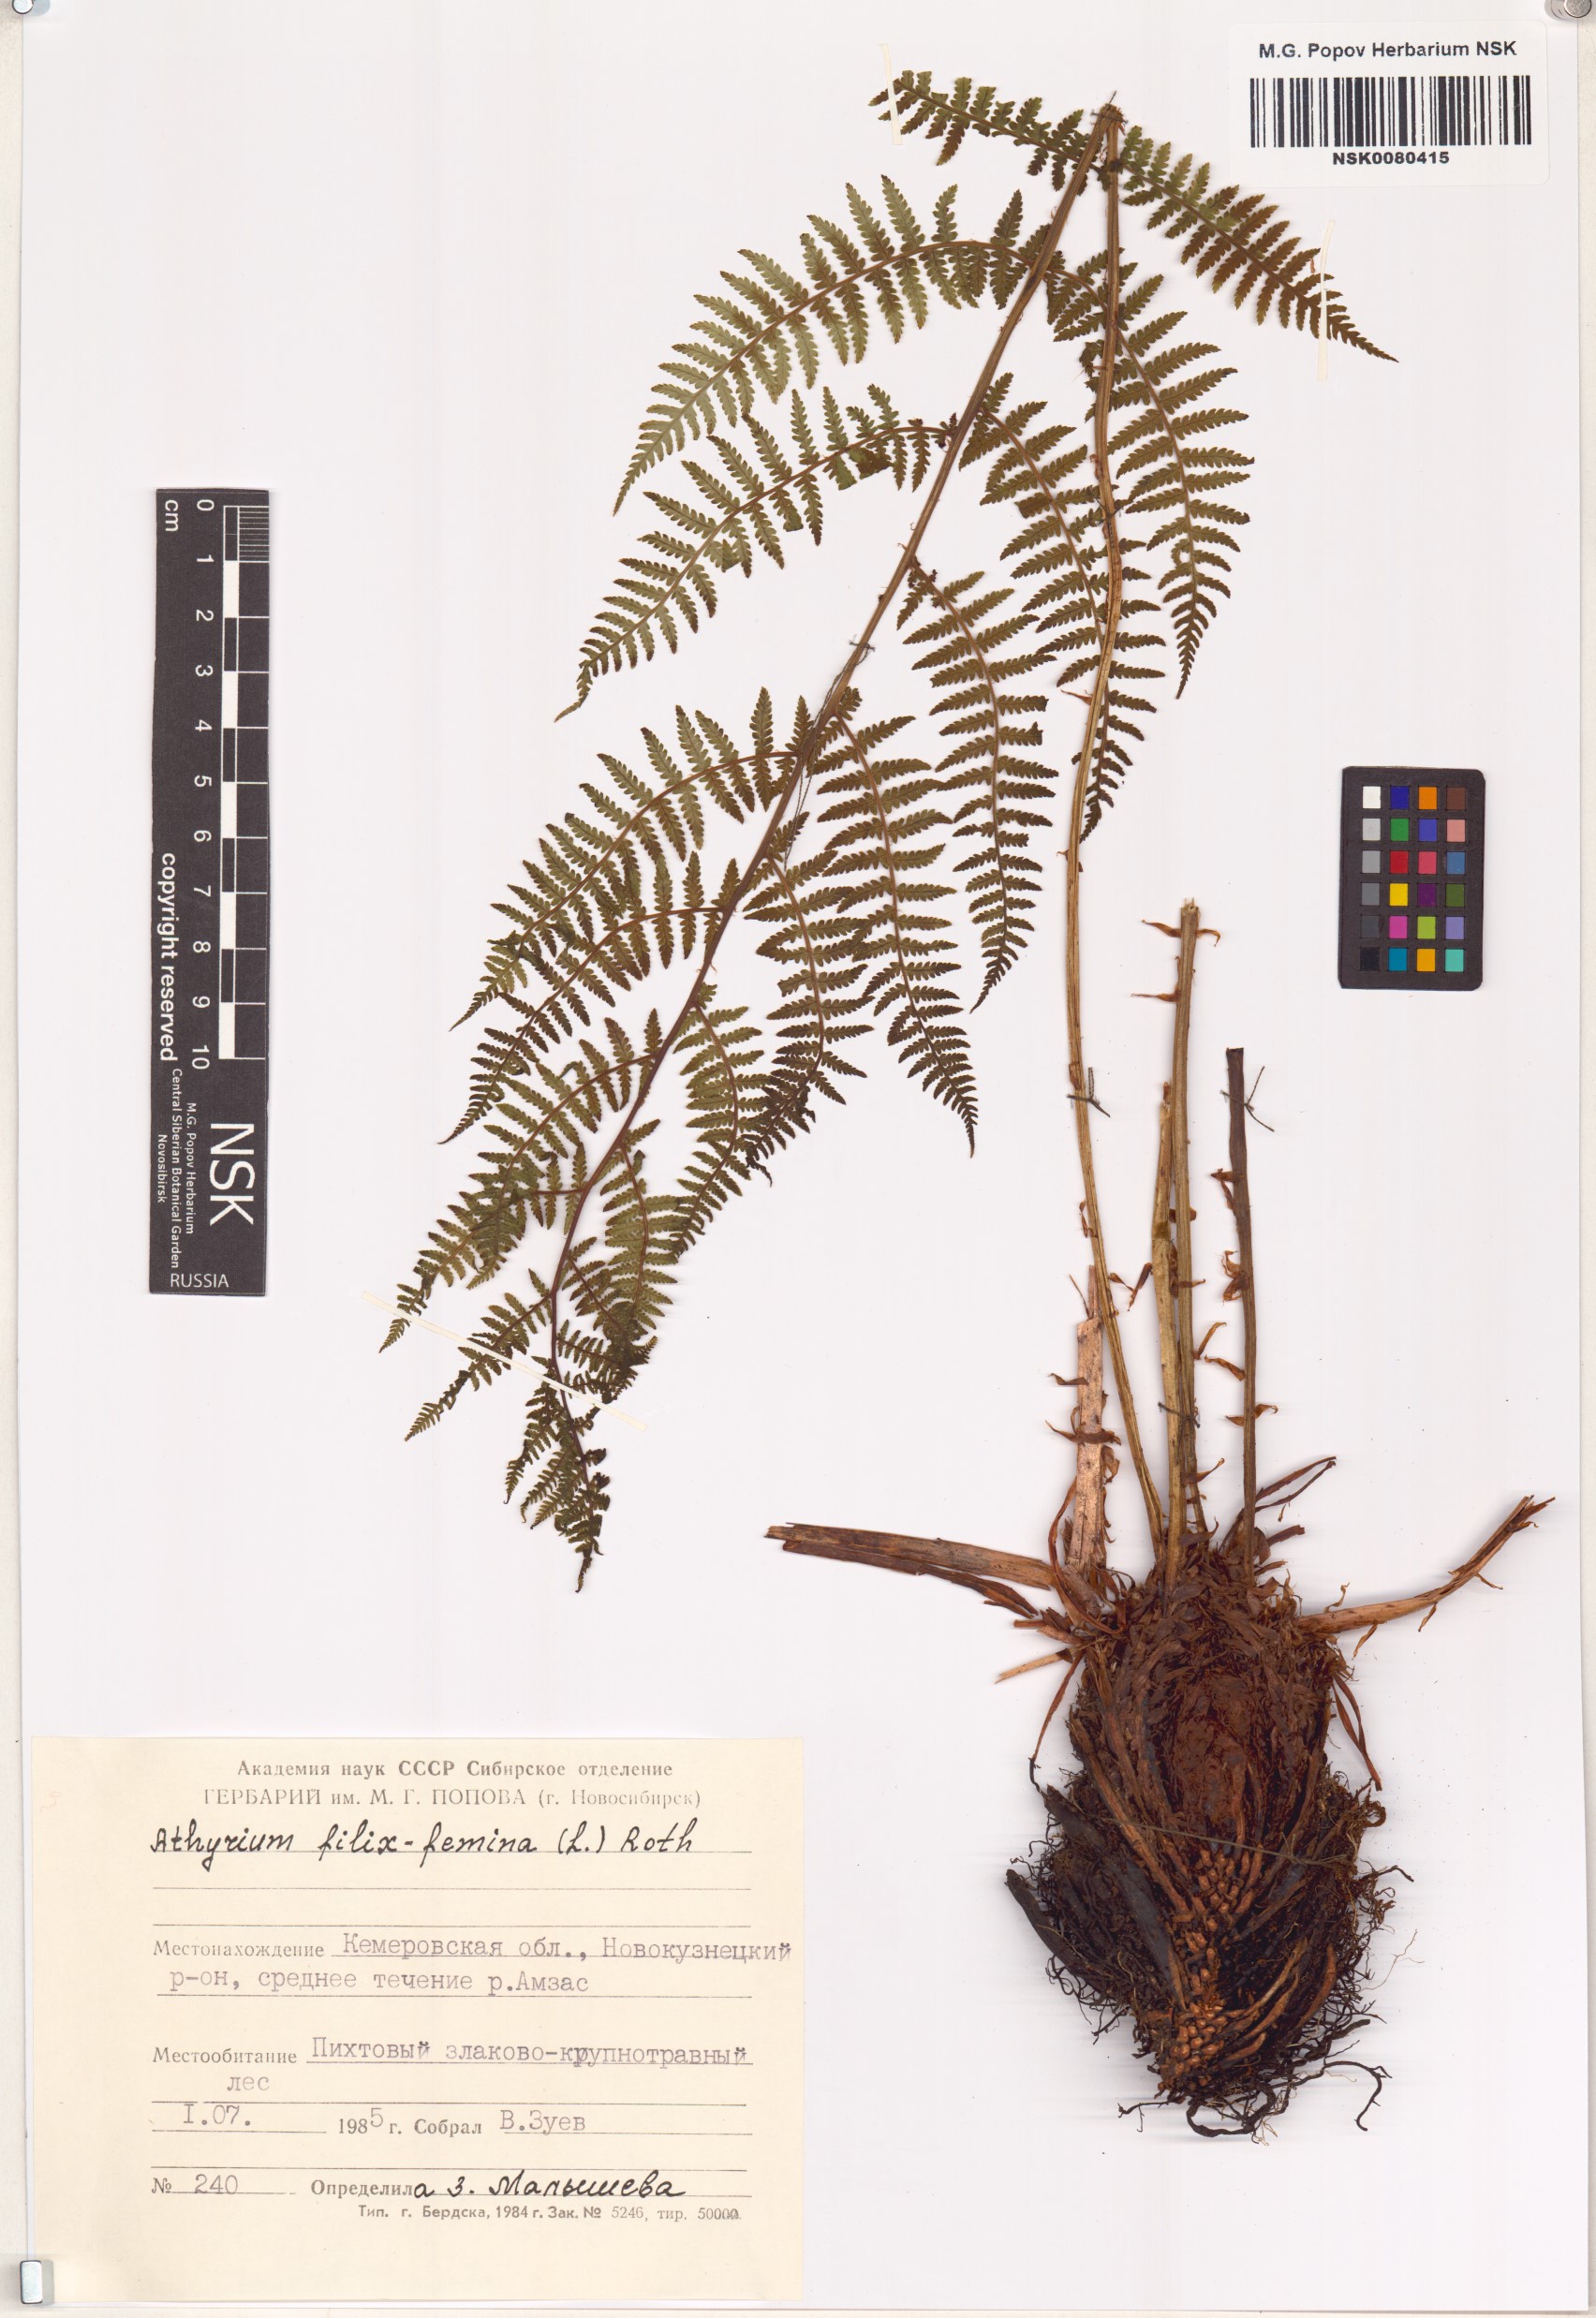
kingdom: Plantae
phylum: Tracheophyta
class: Polypodiopsida
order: Polypodiales
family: Athyriaceae
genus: Athyrium
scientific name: Athyrium filix-femina
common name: Lady fern
